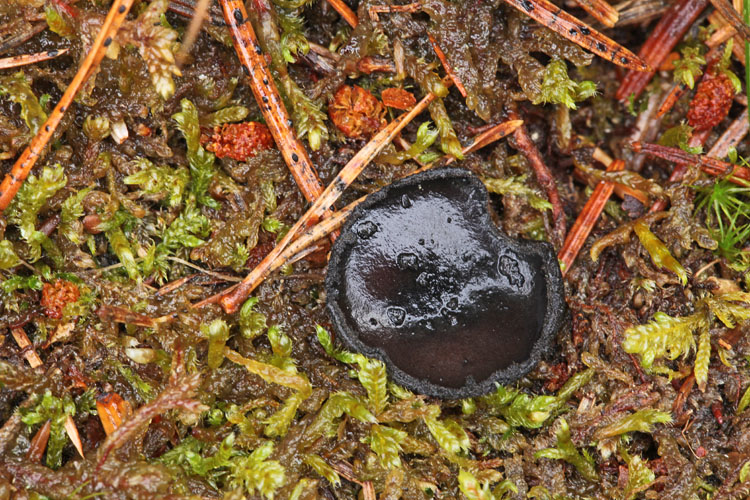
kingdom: Fungi
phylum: Ascomycota
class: Pezizomycetes
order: Pezizales
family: Sarcosomataceae
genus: Pseudoplectania
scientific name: Pseudoplectania nigrella
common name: almindelig sortbæger
